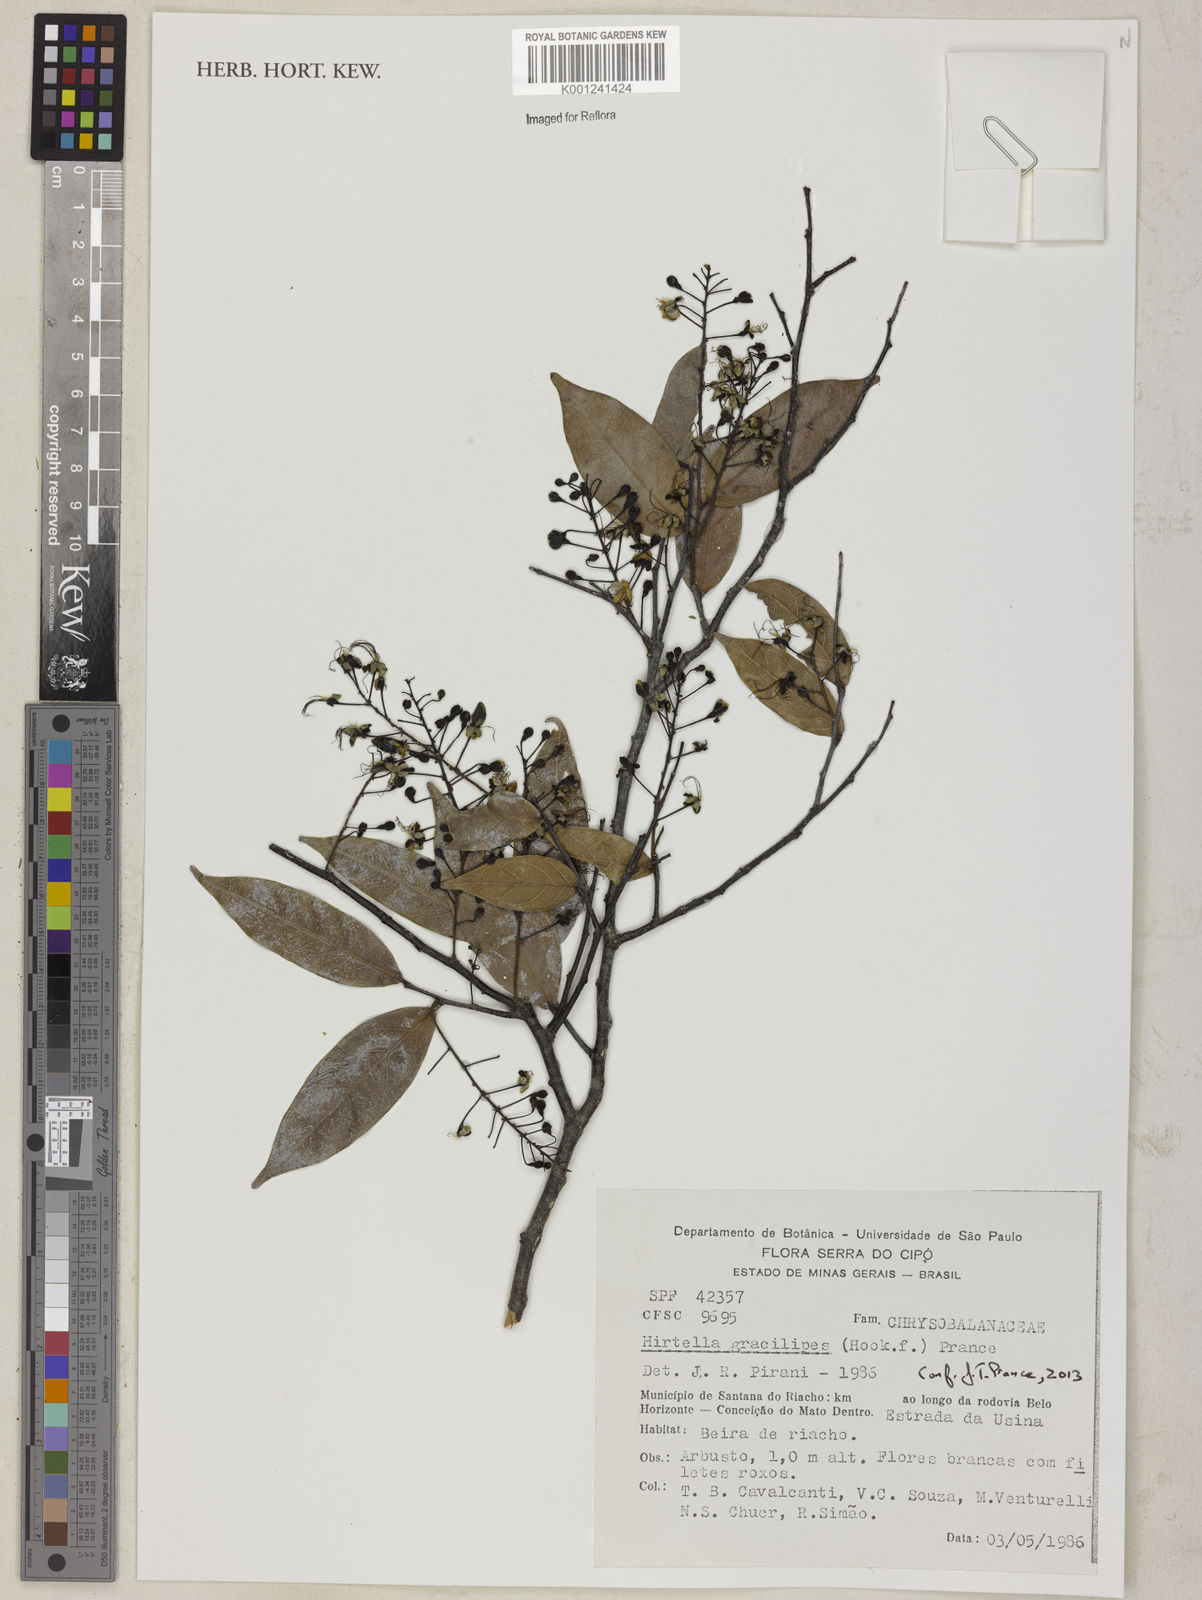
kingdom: Plantae
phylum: Tracheophyta
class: Magnoliopsida
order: Malpighiales
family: Chrysobalanaceae
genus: Hirtella
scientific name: Hirtella gracilipes
